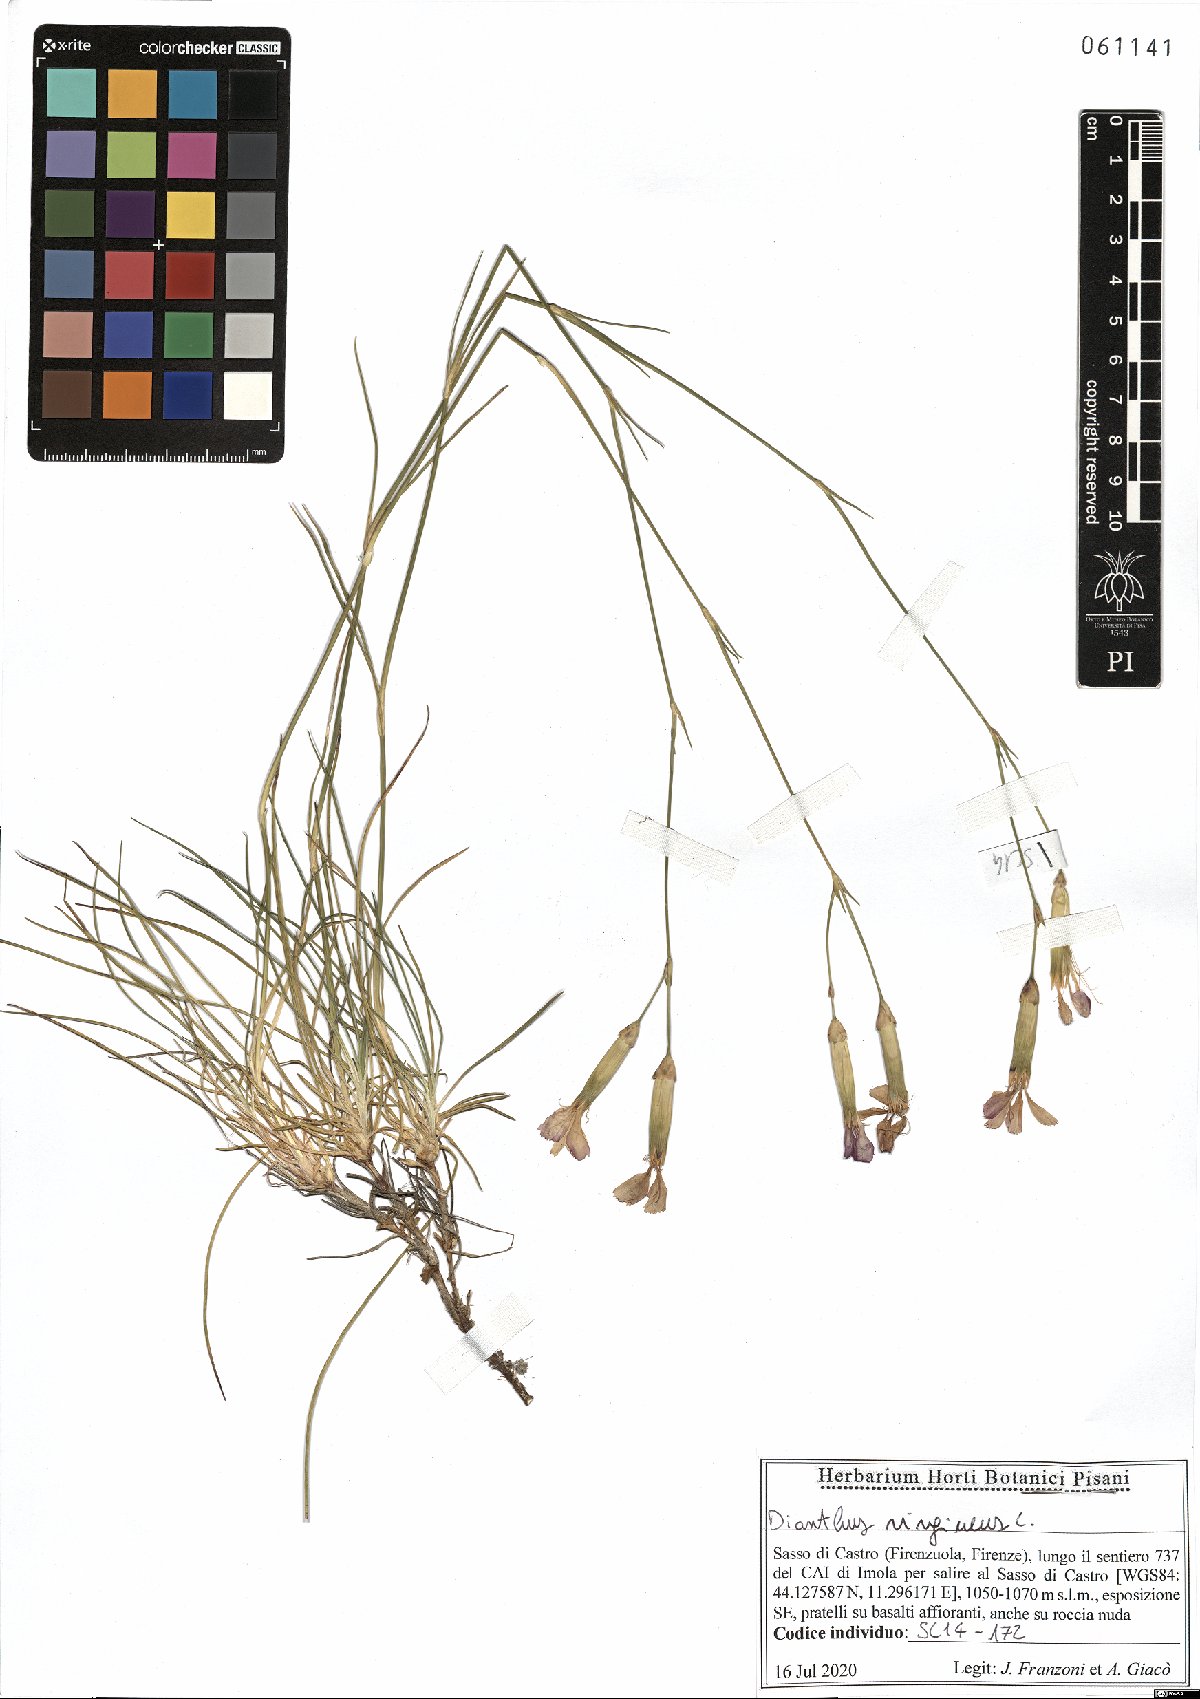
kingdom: Plantae
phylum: Tracheophyta
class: Magnoliopsida
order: Caryophyllales
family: Caryophyllaceae
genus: Dianthus
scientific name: Dianthus virgineus
